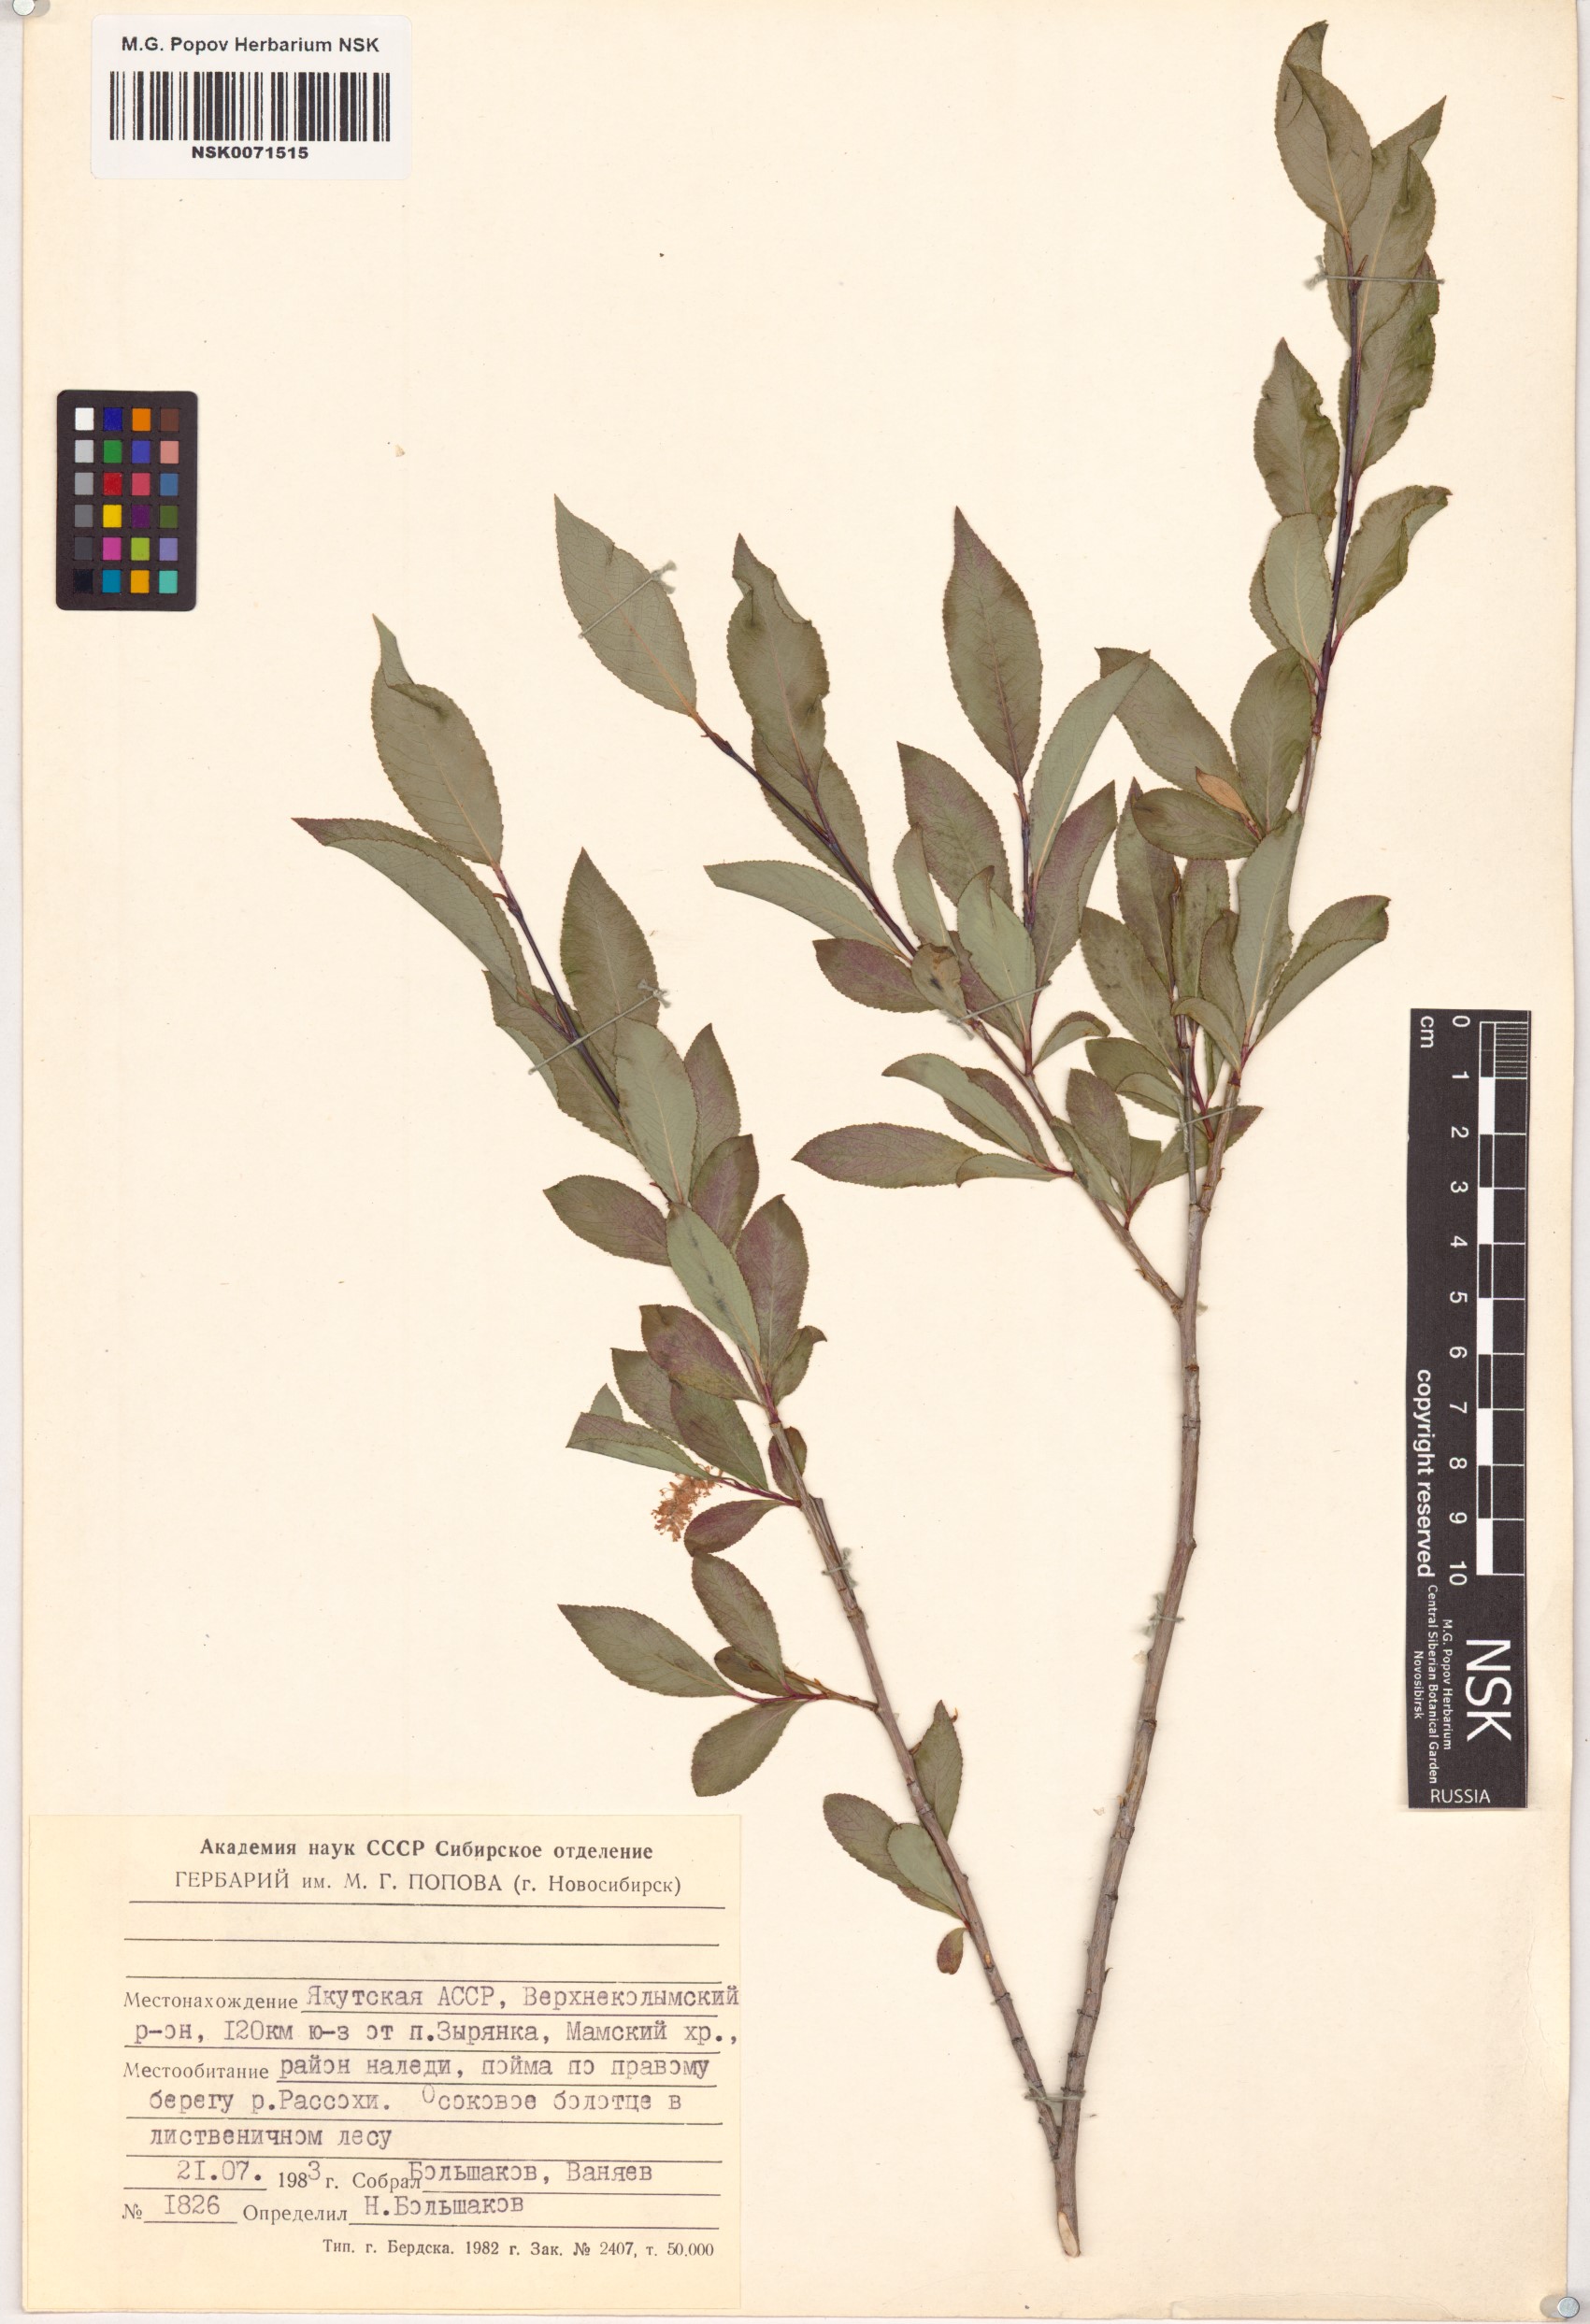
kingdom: Plantae
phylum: Tracheophyta
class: Magnoliopsida
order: Malpighiales
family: Salicaceae
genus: Salix
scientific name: Salix pseudopentandra
